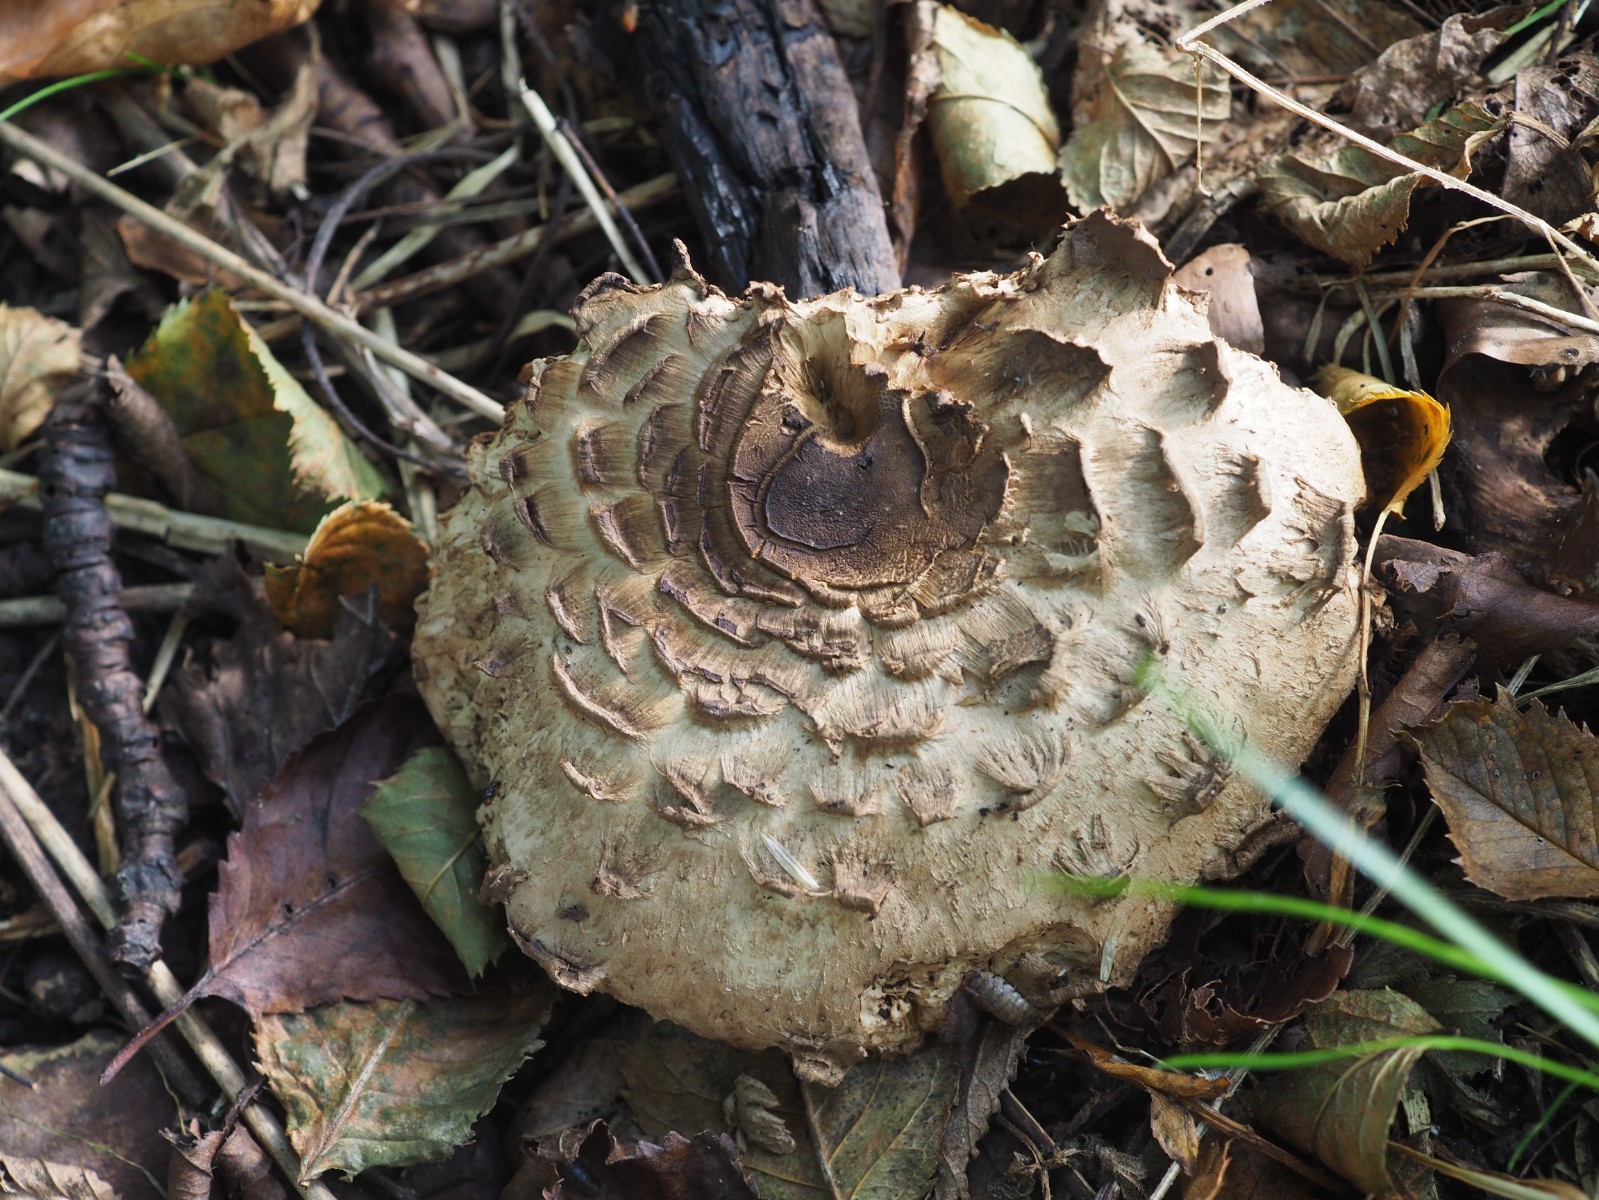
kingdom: Fungi
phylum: Basidiomycota
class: Agaricomycetes
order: Agaricales
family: Agaricaceae
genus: Chlorophyllum
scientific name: Chlorophyllum olivieri
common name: almindelig rabarberhat
